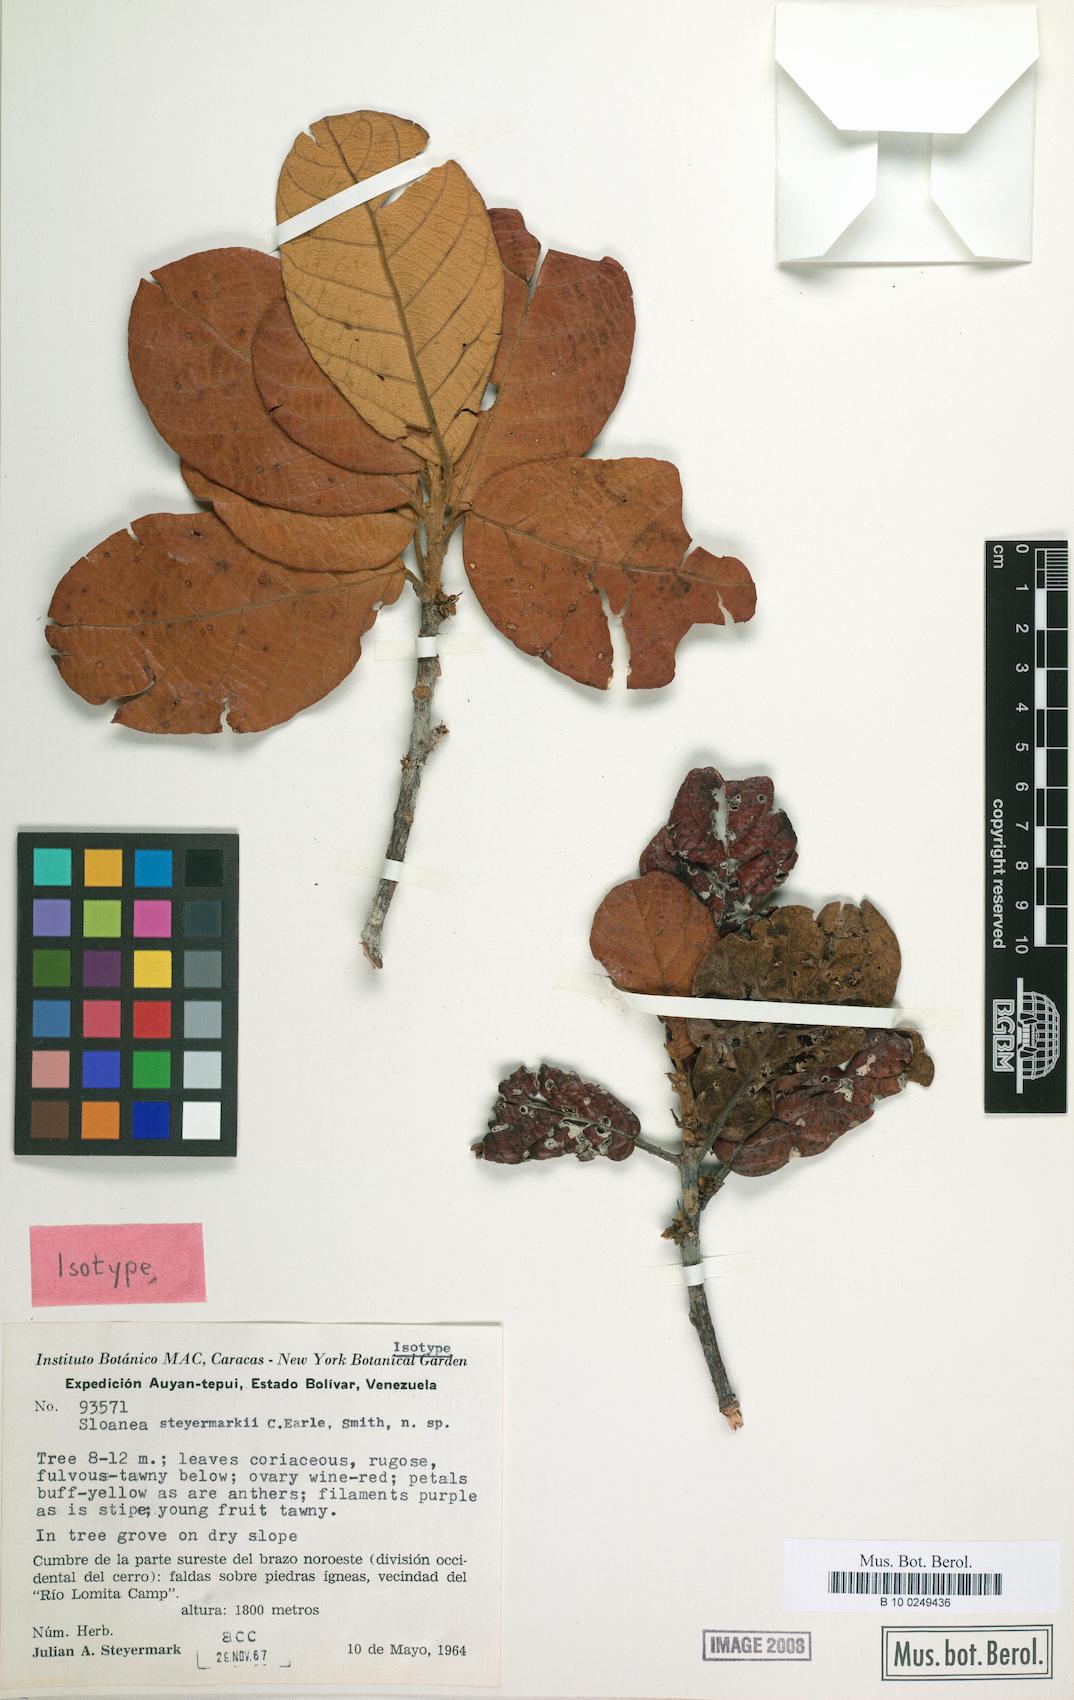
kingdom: Plantae
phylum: Tracheophyta
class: Magnoliopsida
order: Oxalidales
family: Elaeocarpaceae
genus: Sloanea
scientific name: Sloanea steyermarkii
